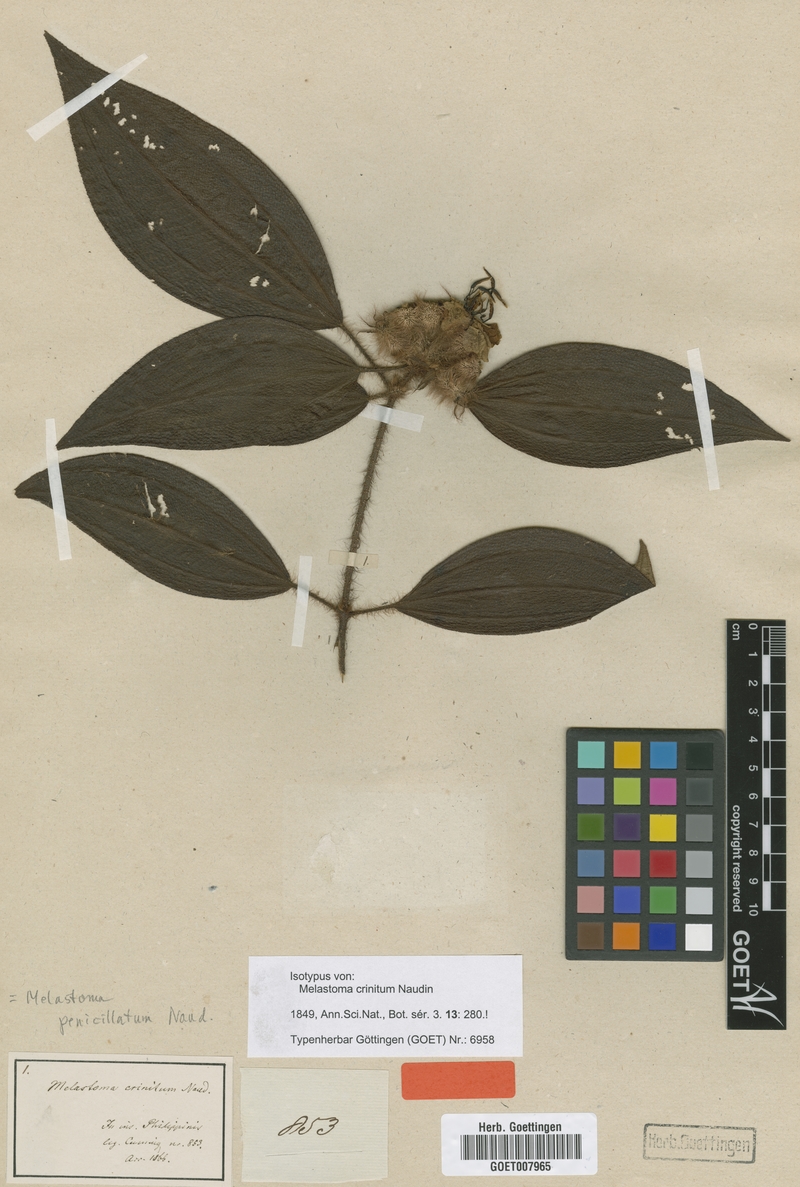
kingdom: Plantae
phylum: Tracheophyta
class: Magnoliopsida
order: Myrtales
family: Melastomataceae
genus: Melastoma
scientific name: Melastoma penicillatum
